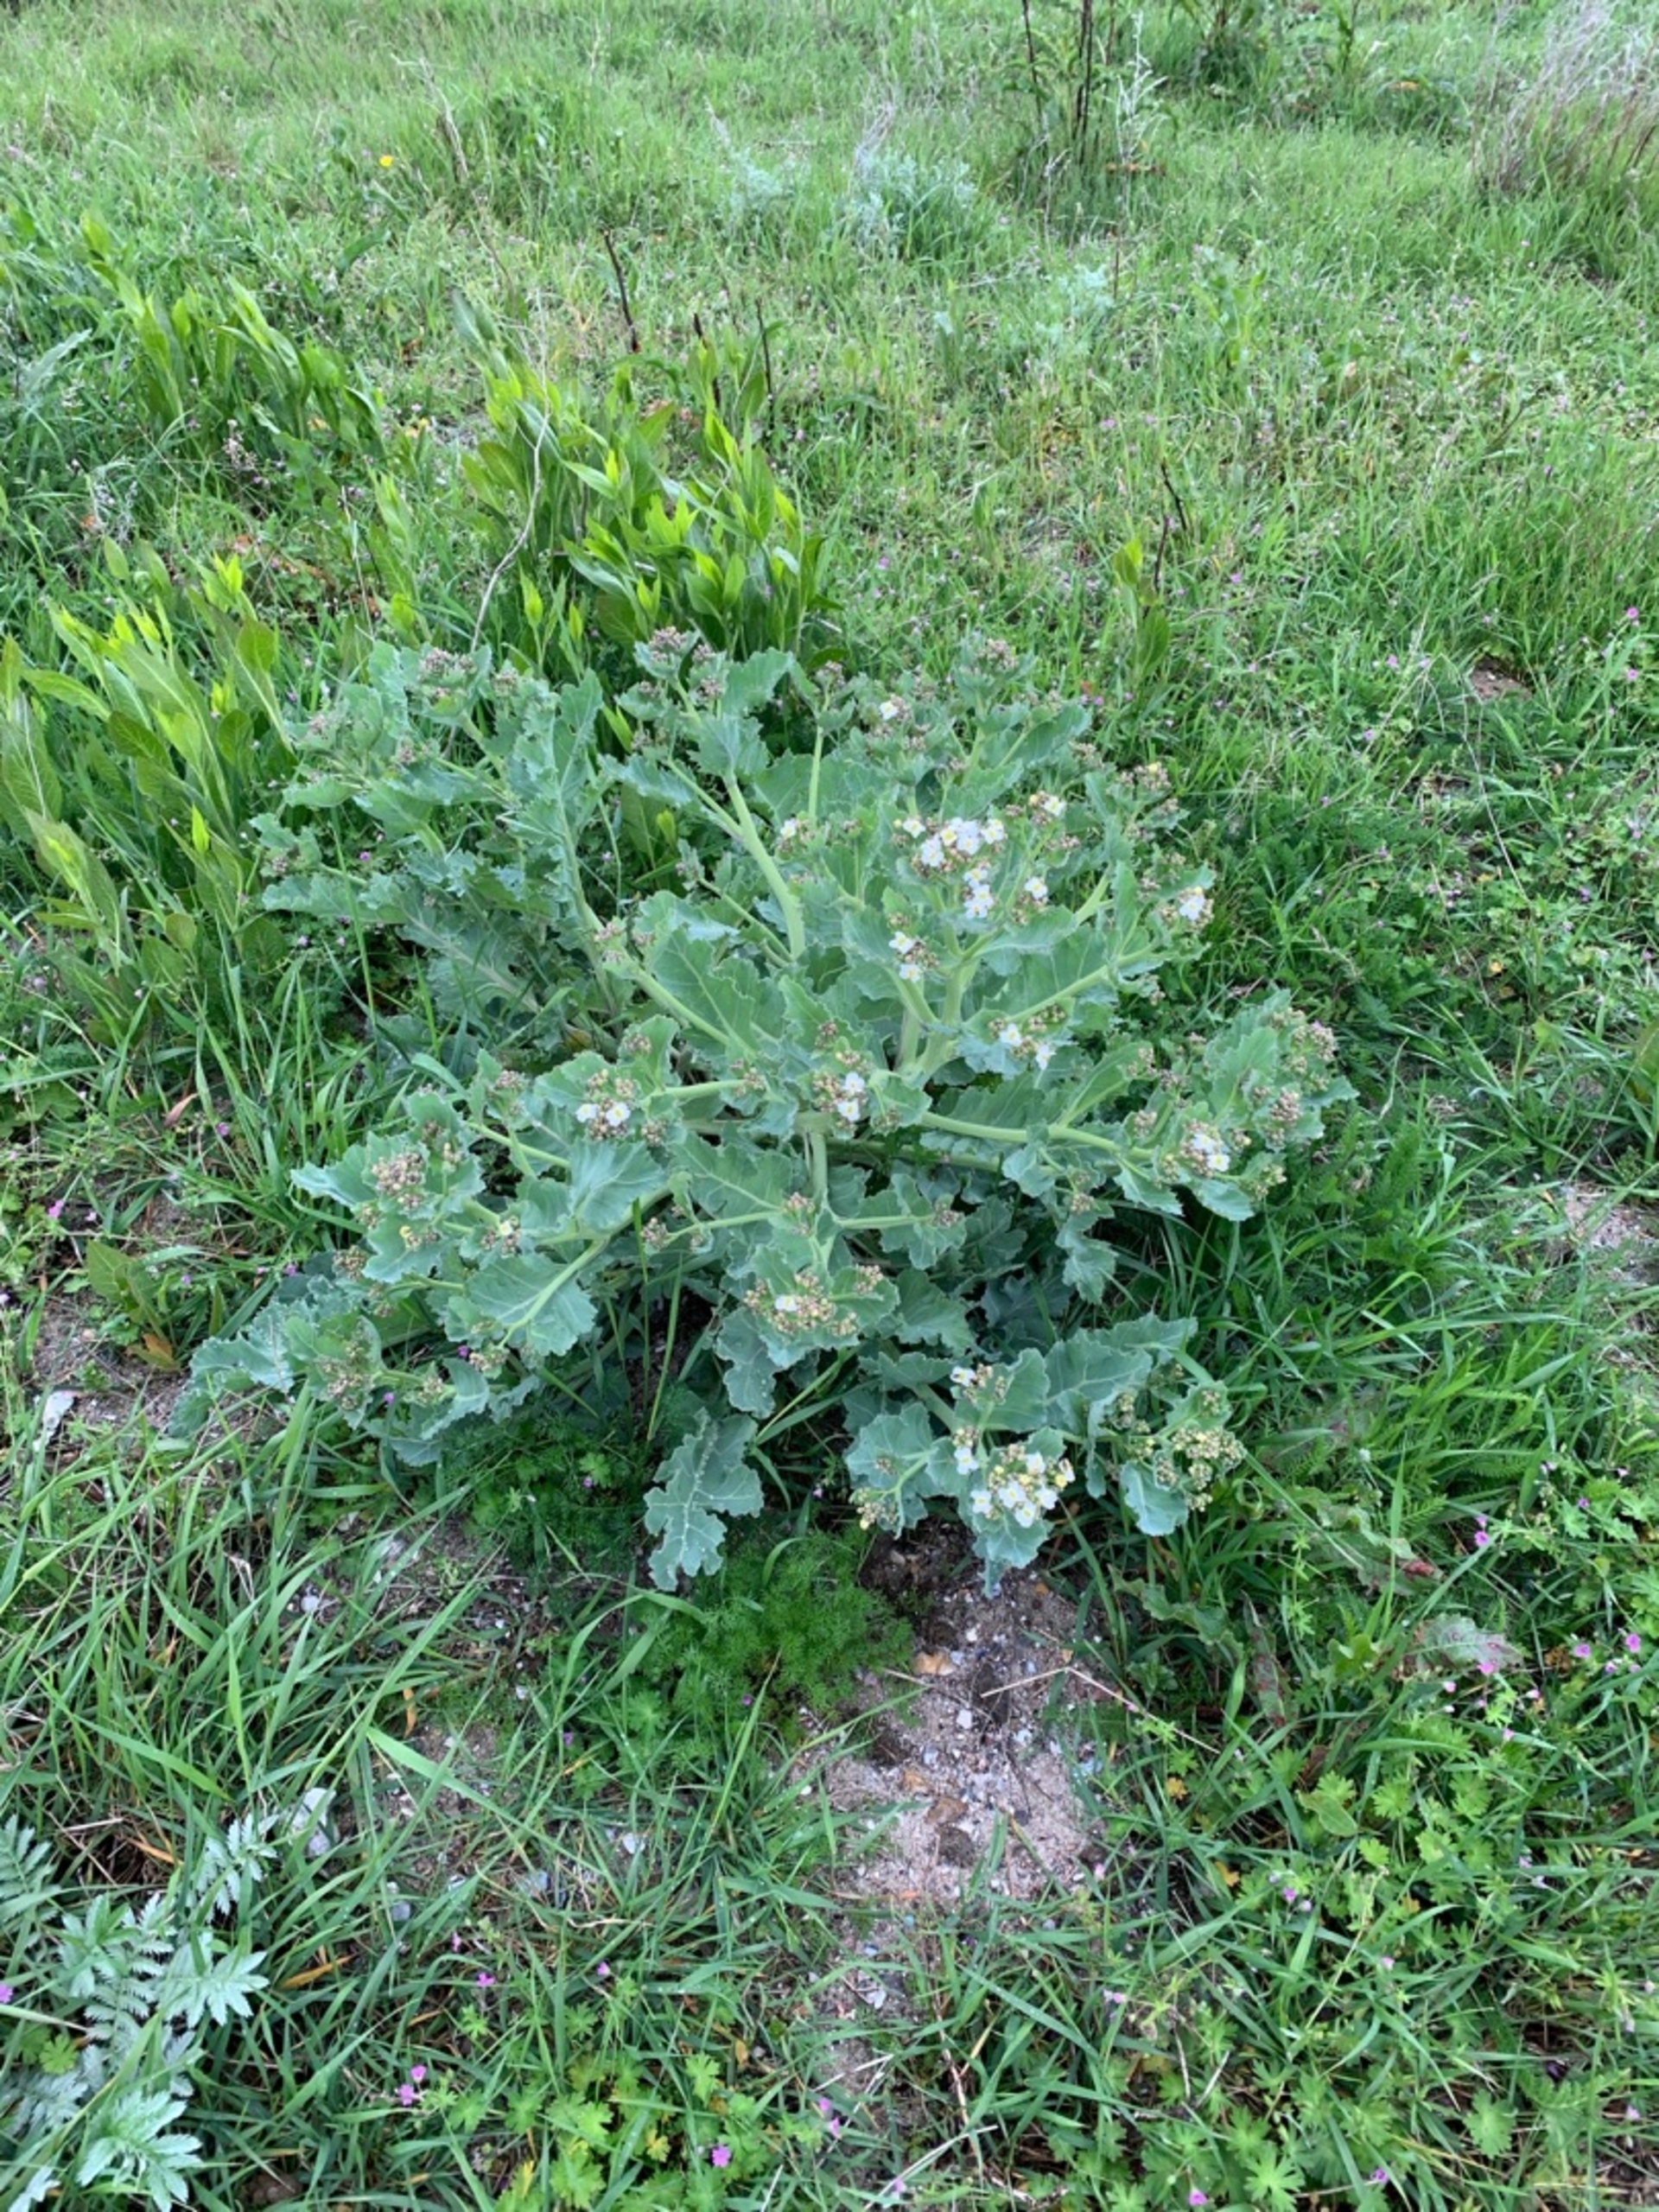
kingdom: Plantae
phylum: Tracheophyta
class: Magnoliopsida
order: Brassicales
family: Brassicaceae
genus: Crambe
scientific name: Crambe maritima
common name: Strandkål
